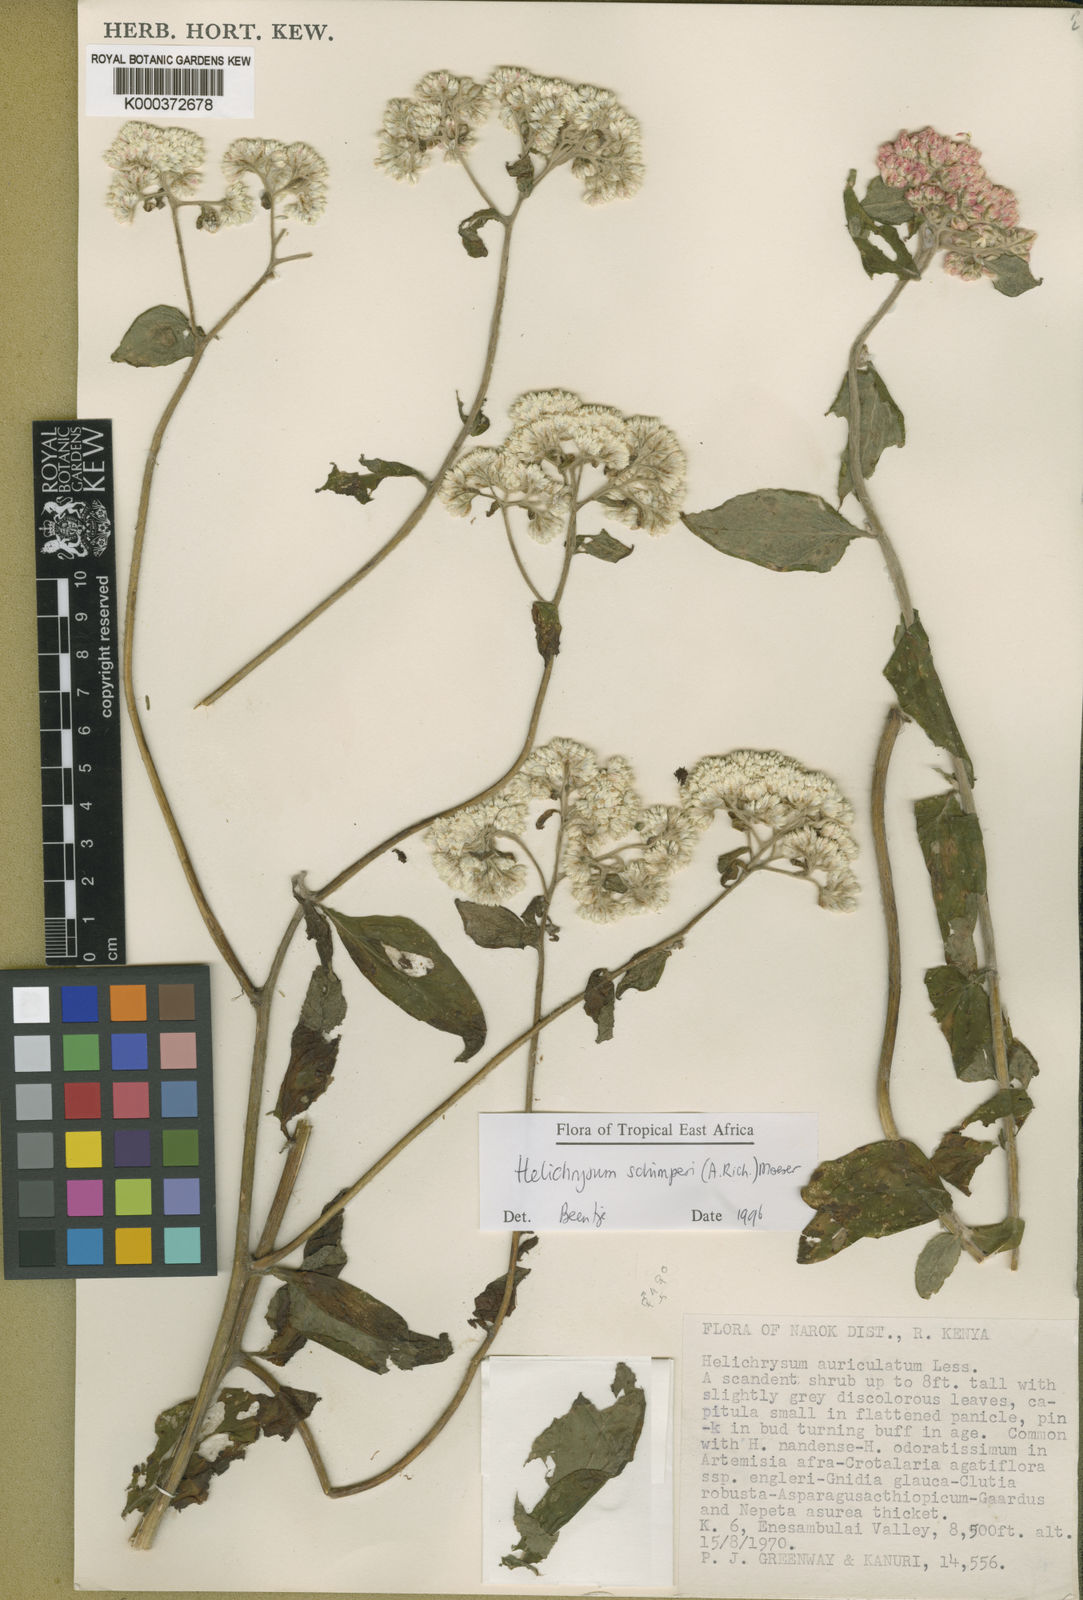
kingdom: Plantae
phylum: Tracheophyta
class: Magnoliopsida
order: Asterales
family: Asteraceae
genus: Helichrysum
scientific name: Helichrysum schimperi
